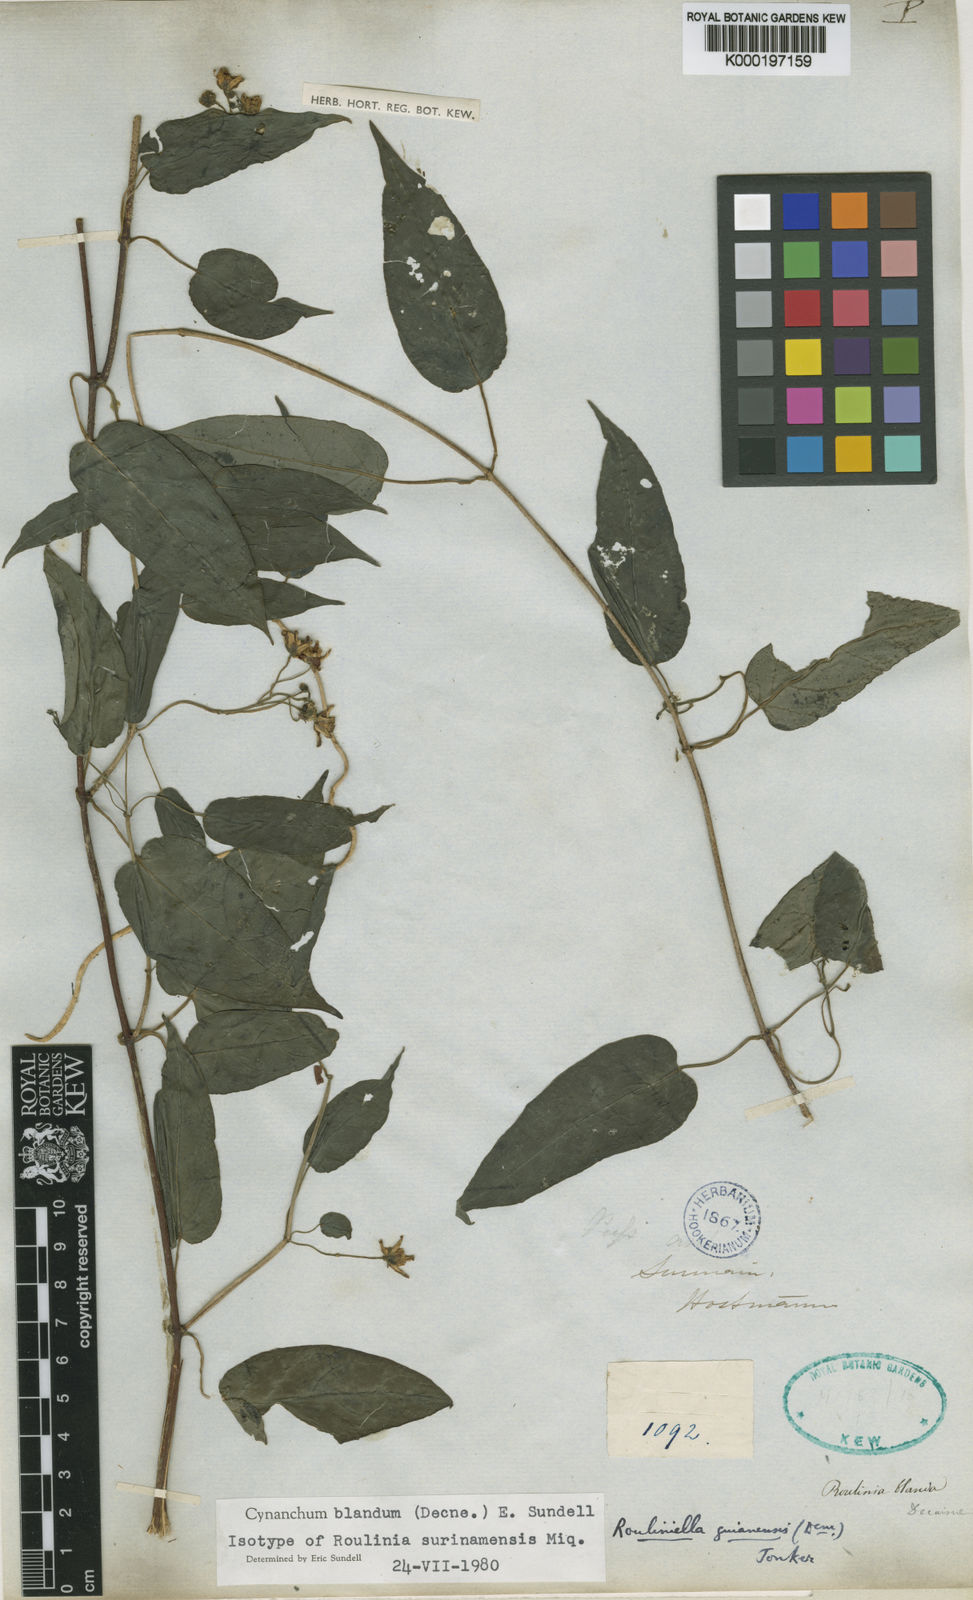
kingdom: Plantae
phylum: Tracheophyta
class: Magnoliopsida
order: Gentianales
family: Apocynaceae
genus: Cynanchum
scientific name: Cynanchum blandum
